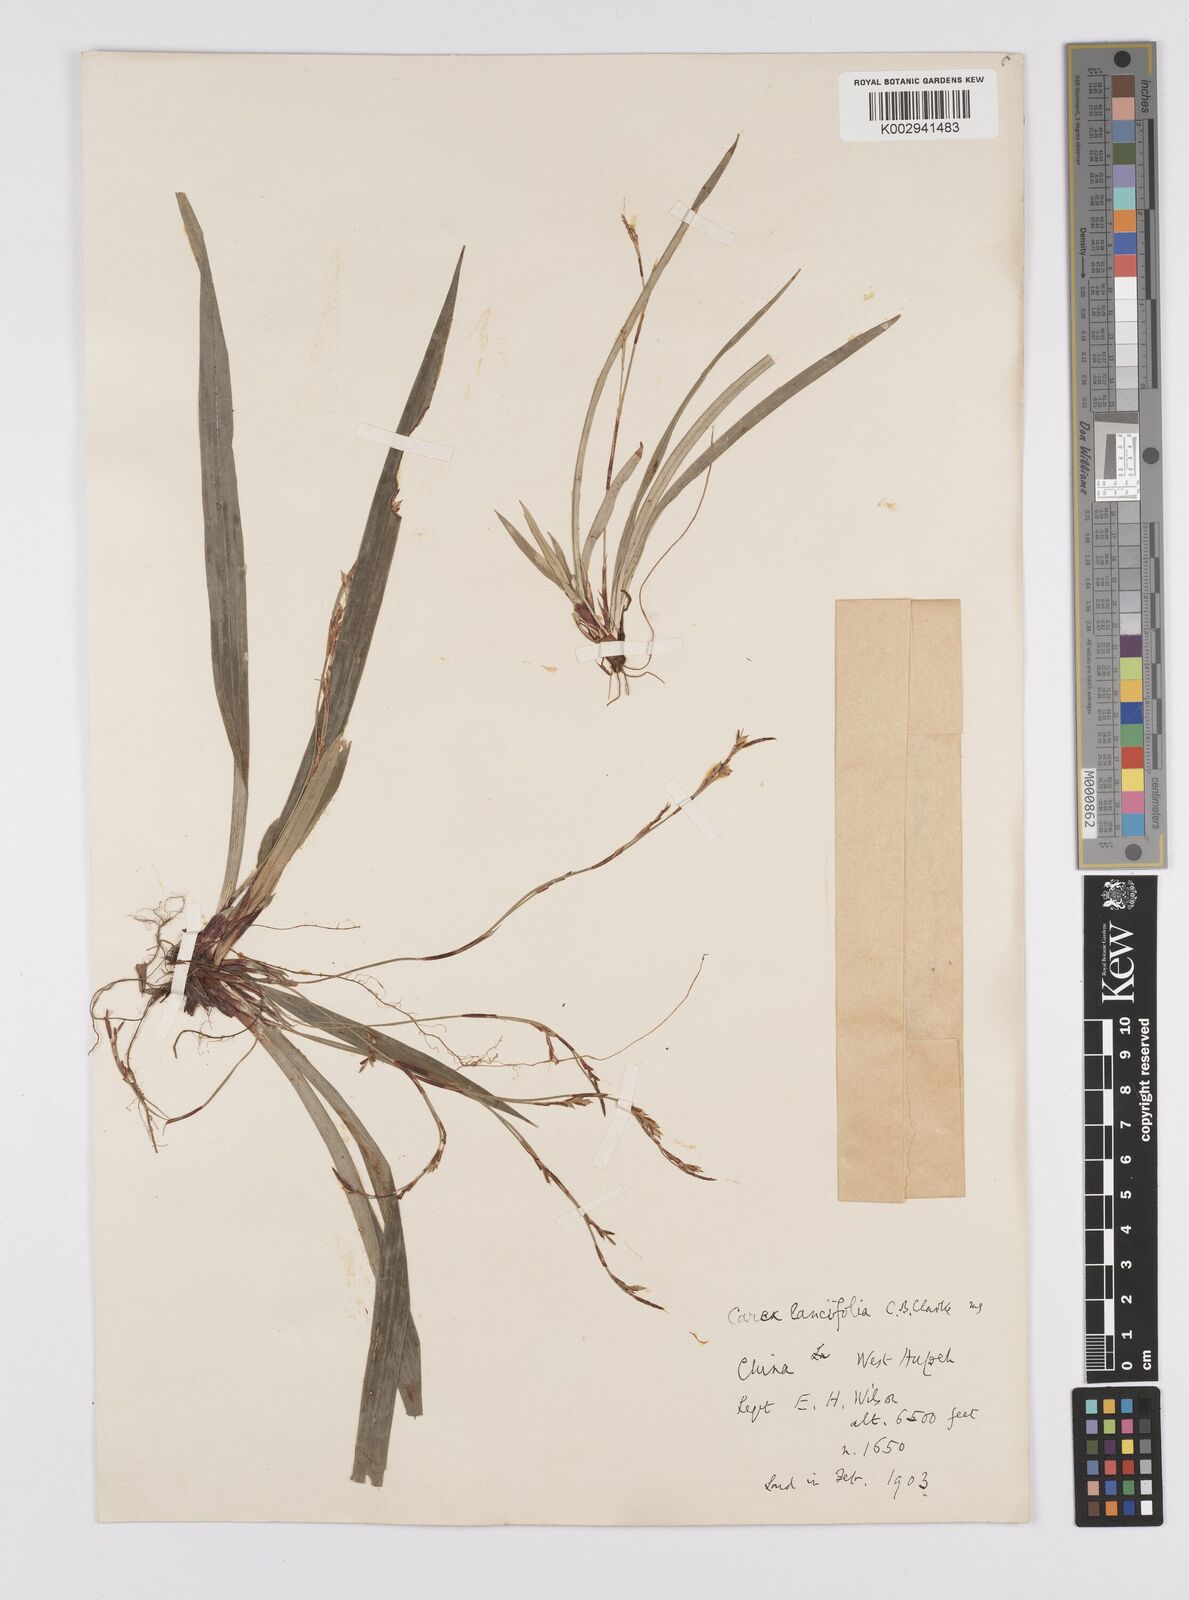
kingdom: Plantae
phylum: Tracheophyta
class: Liliopsida
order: Poales
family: Cyperaceae
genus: Carex
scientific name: Carex lancifolia
